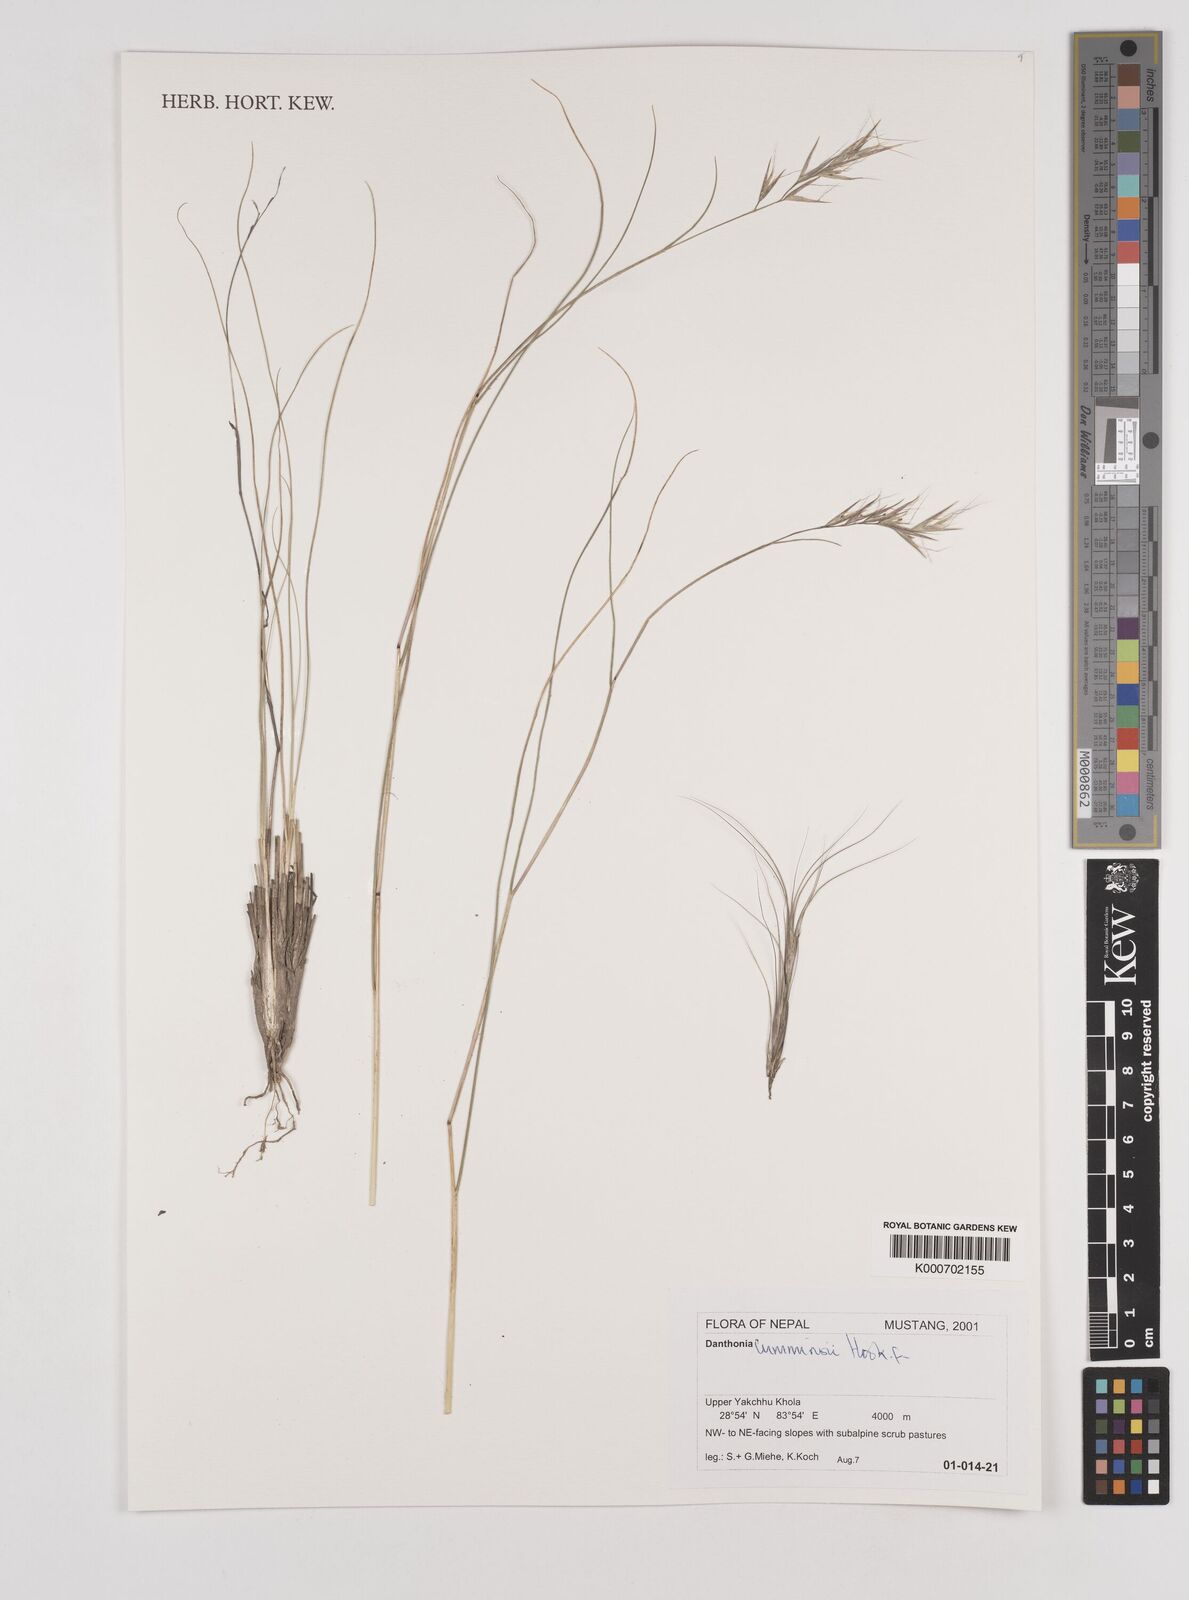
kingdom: Plantae
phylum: Tracheophyta
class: Liliopsida
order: Poales
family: Poaceae
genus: Tenaxia
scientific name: Tenaxia cumminsii
